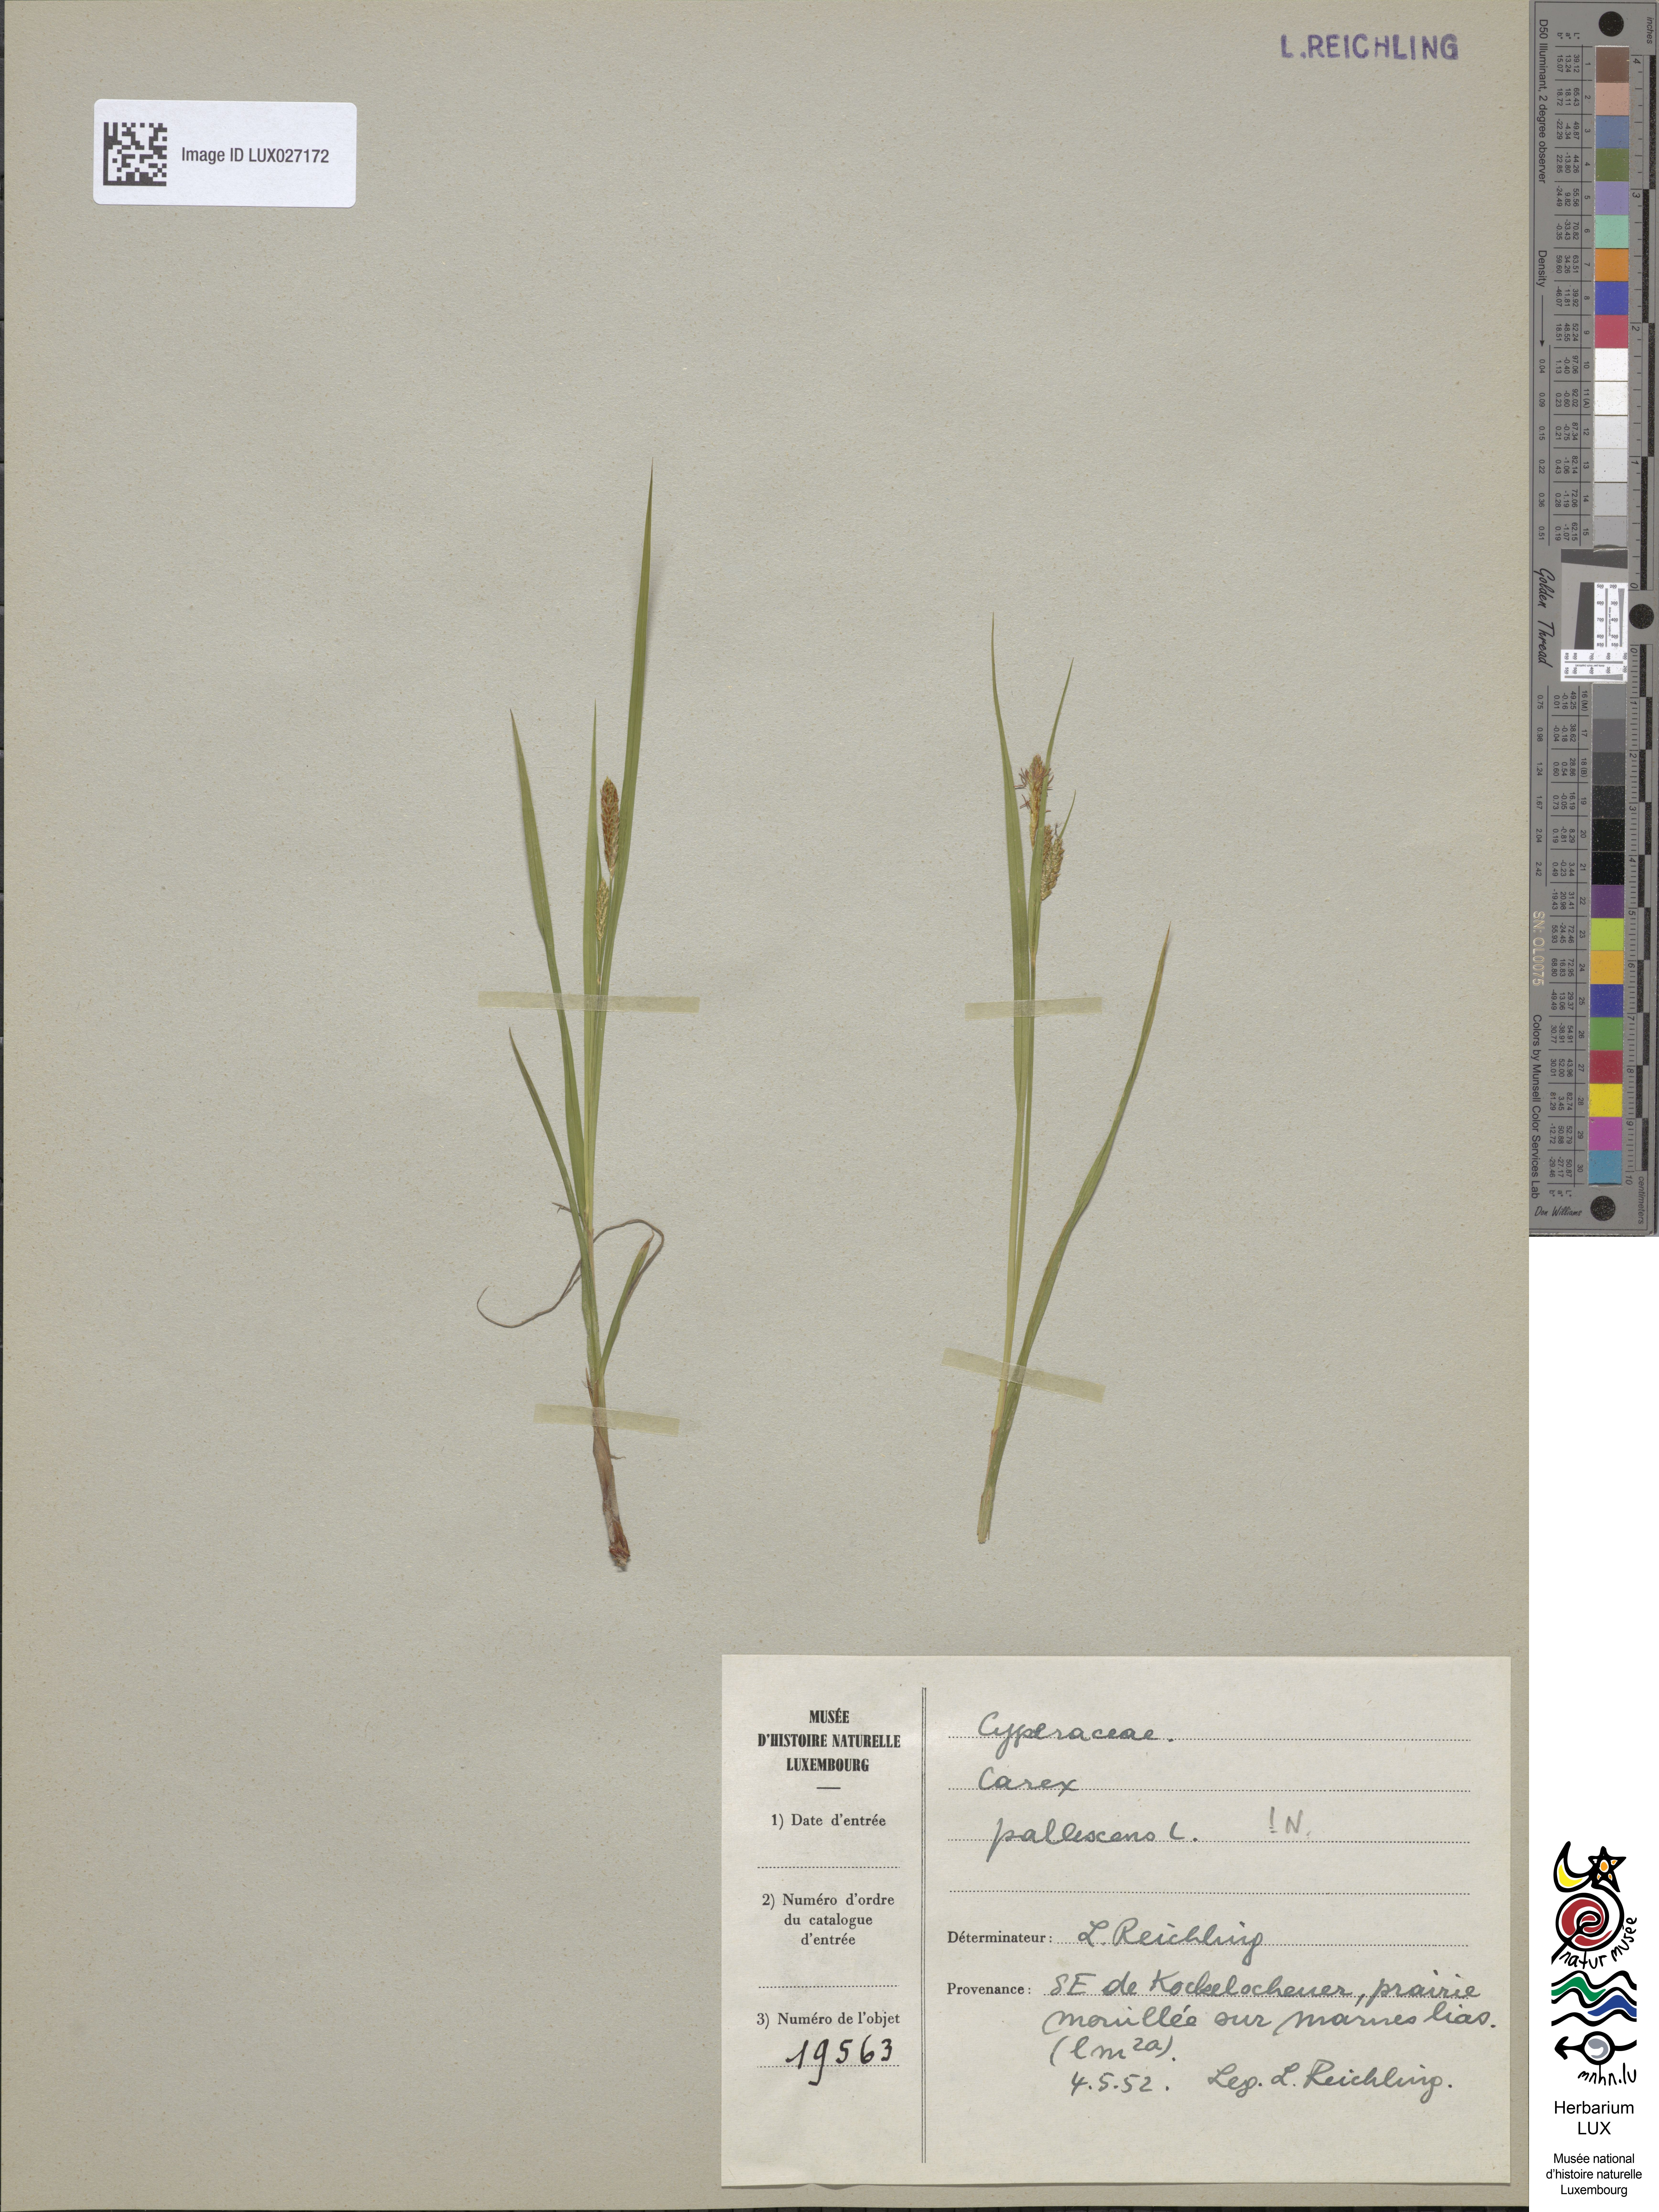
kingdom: Plantae
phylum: Tracheophyta
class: Liliopsida
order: Poales
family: Cyperaceae
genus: Carex
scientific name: Carex pallescens
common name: Pale sedge
